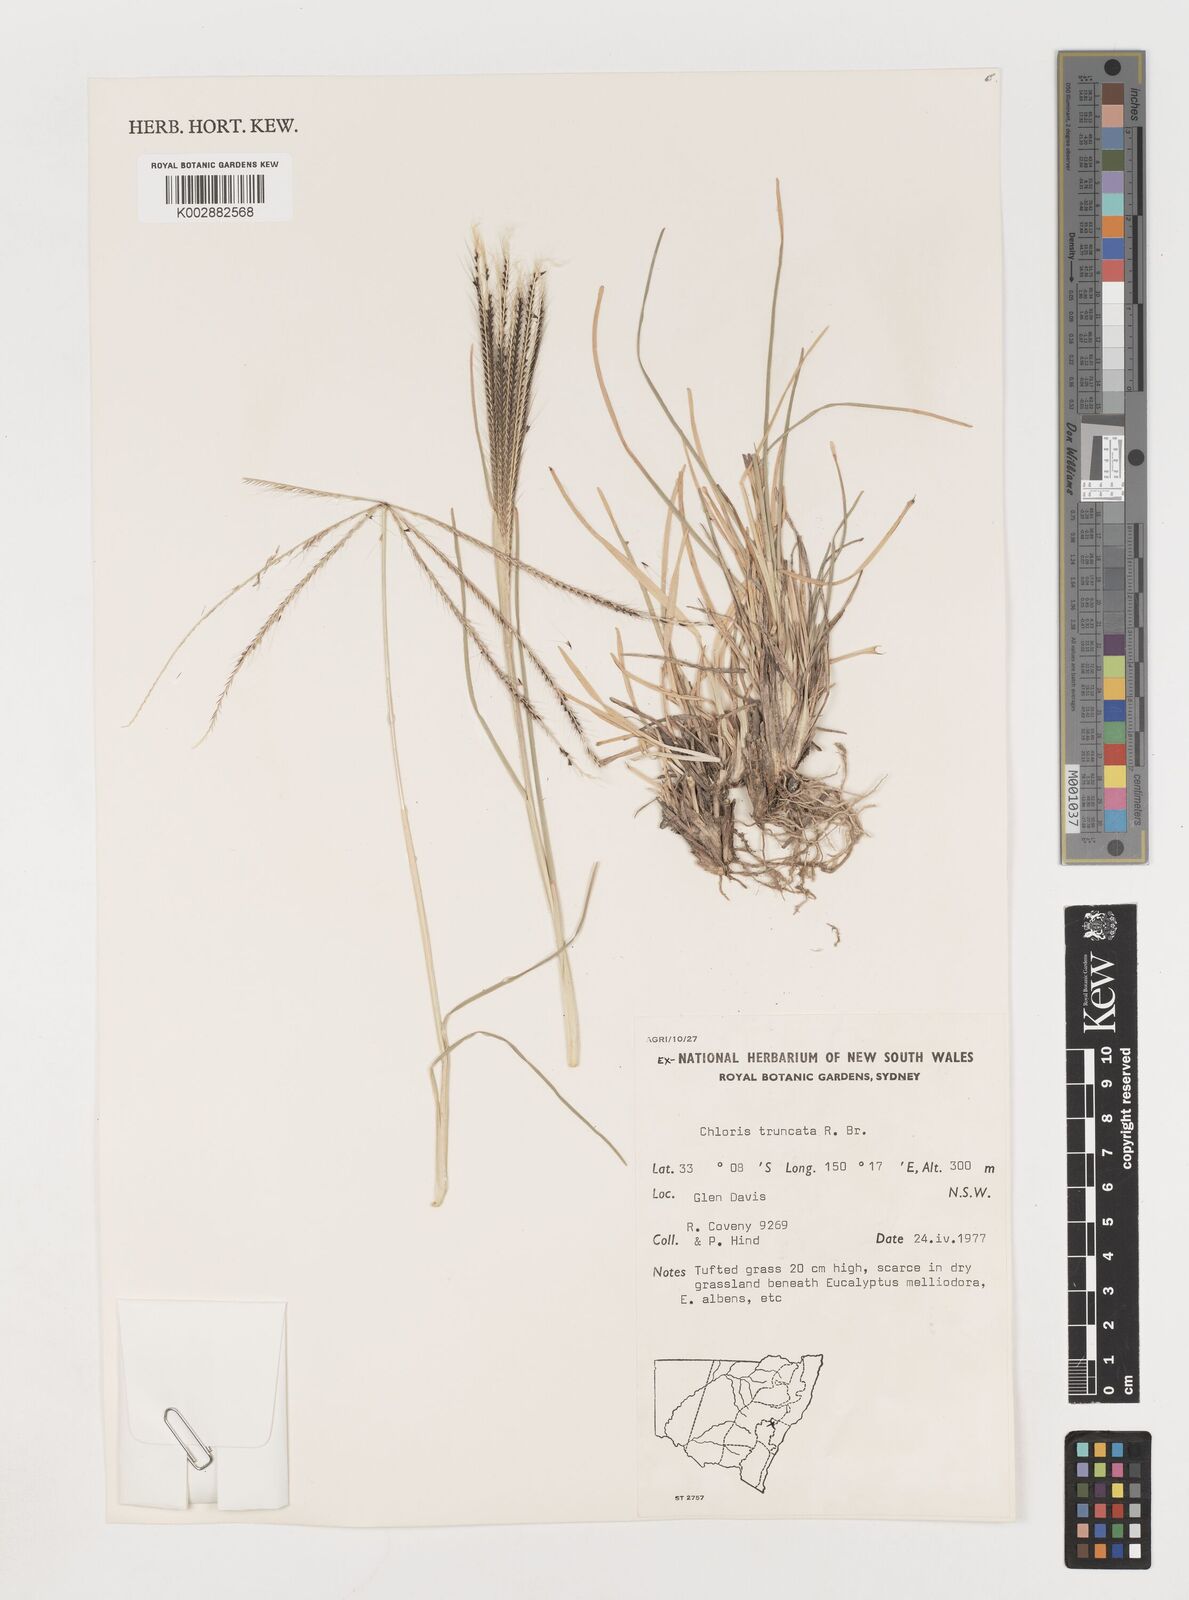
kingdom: Plantae
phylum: Tracheophyta
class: Liliopsida
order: Poales
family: Poaceae
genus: Chloris
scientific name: Chloris truncata
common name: Windmill-grass
